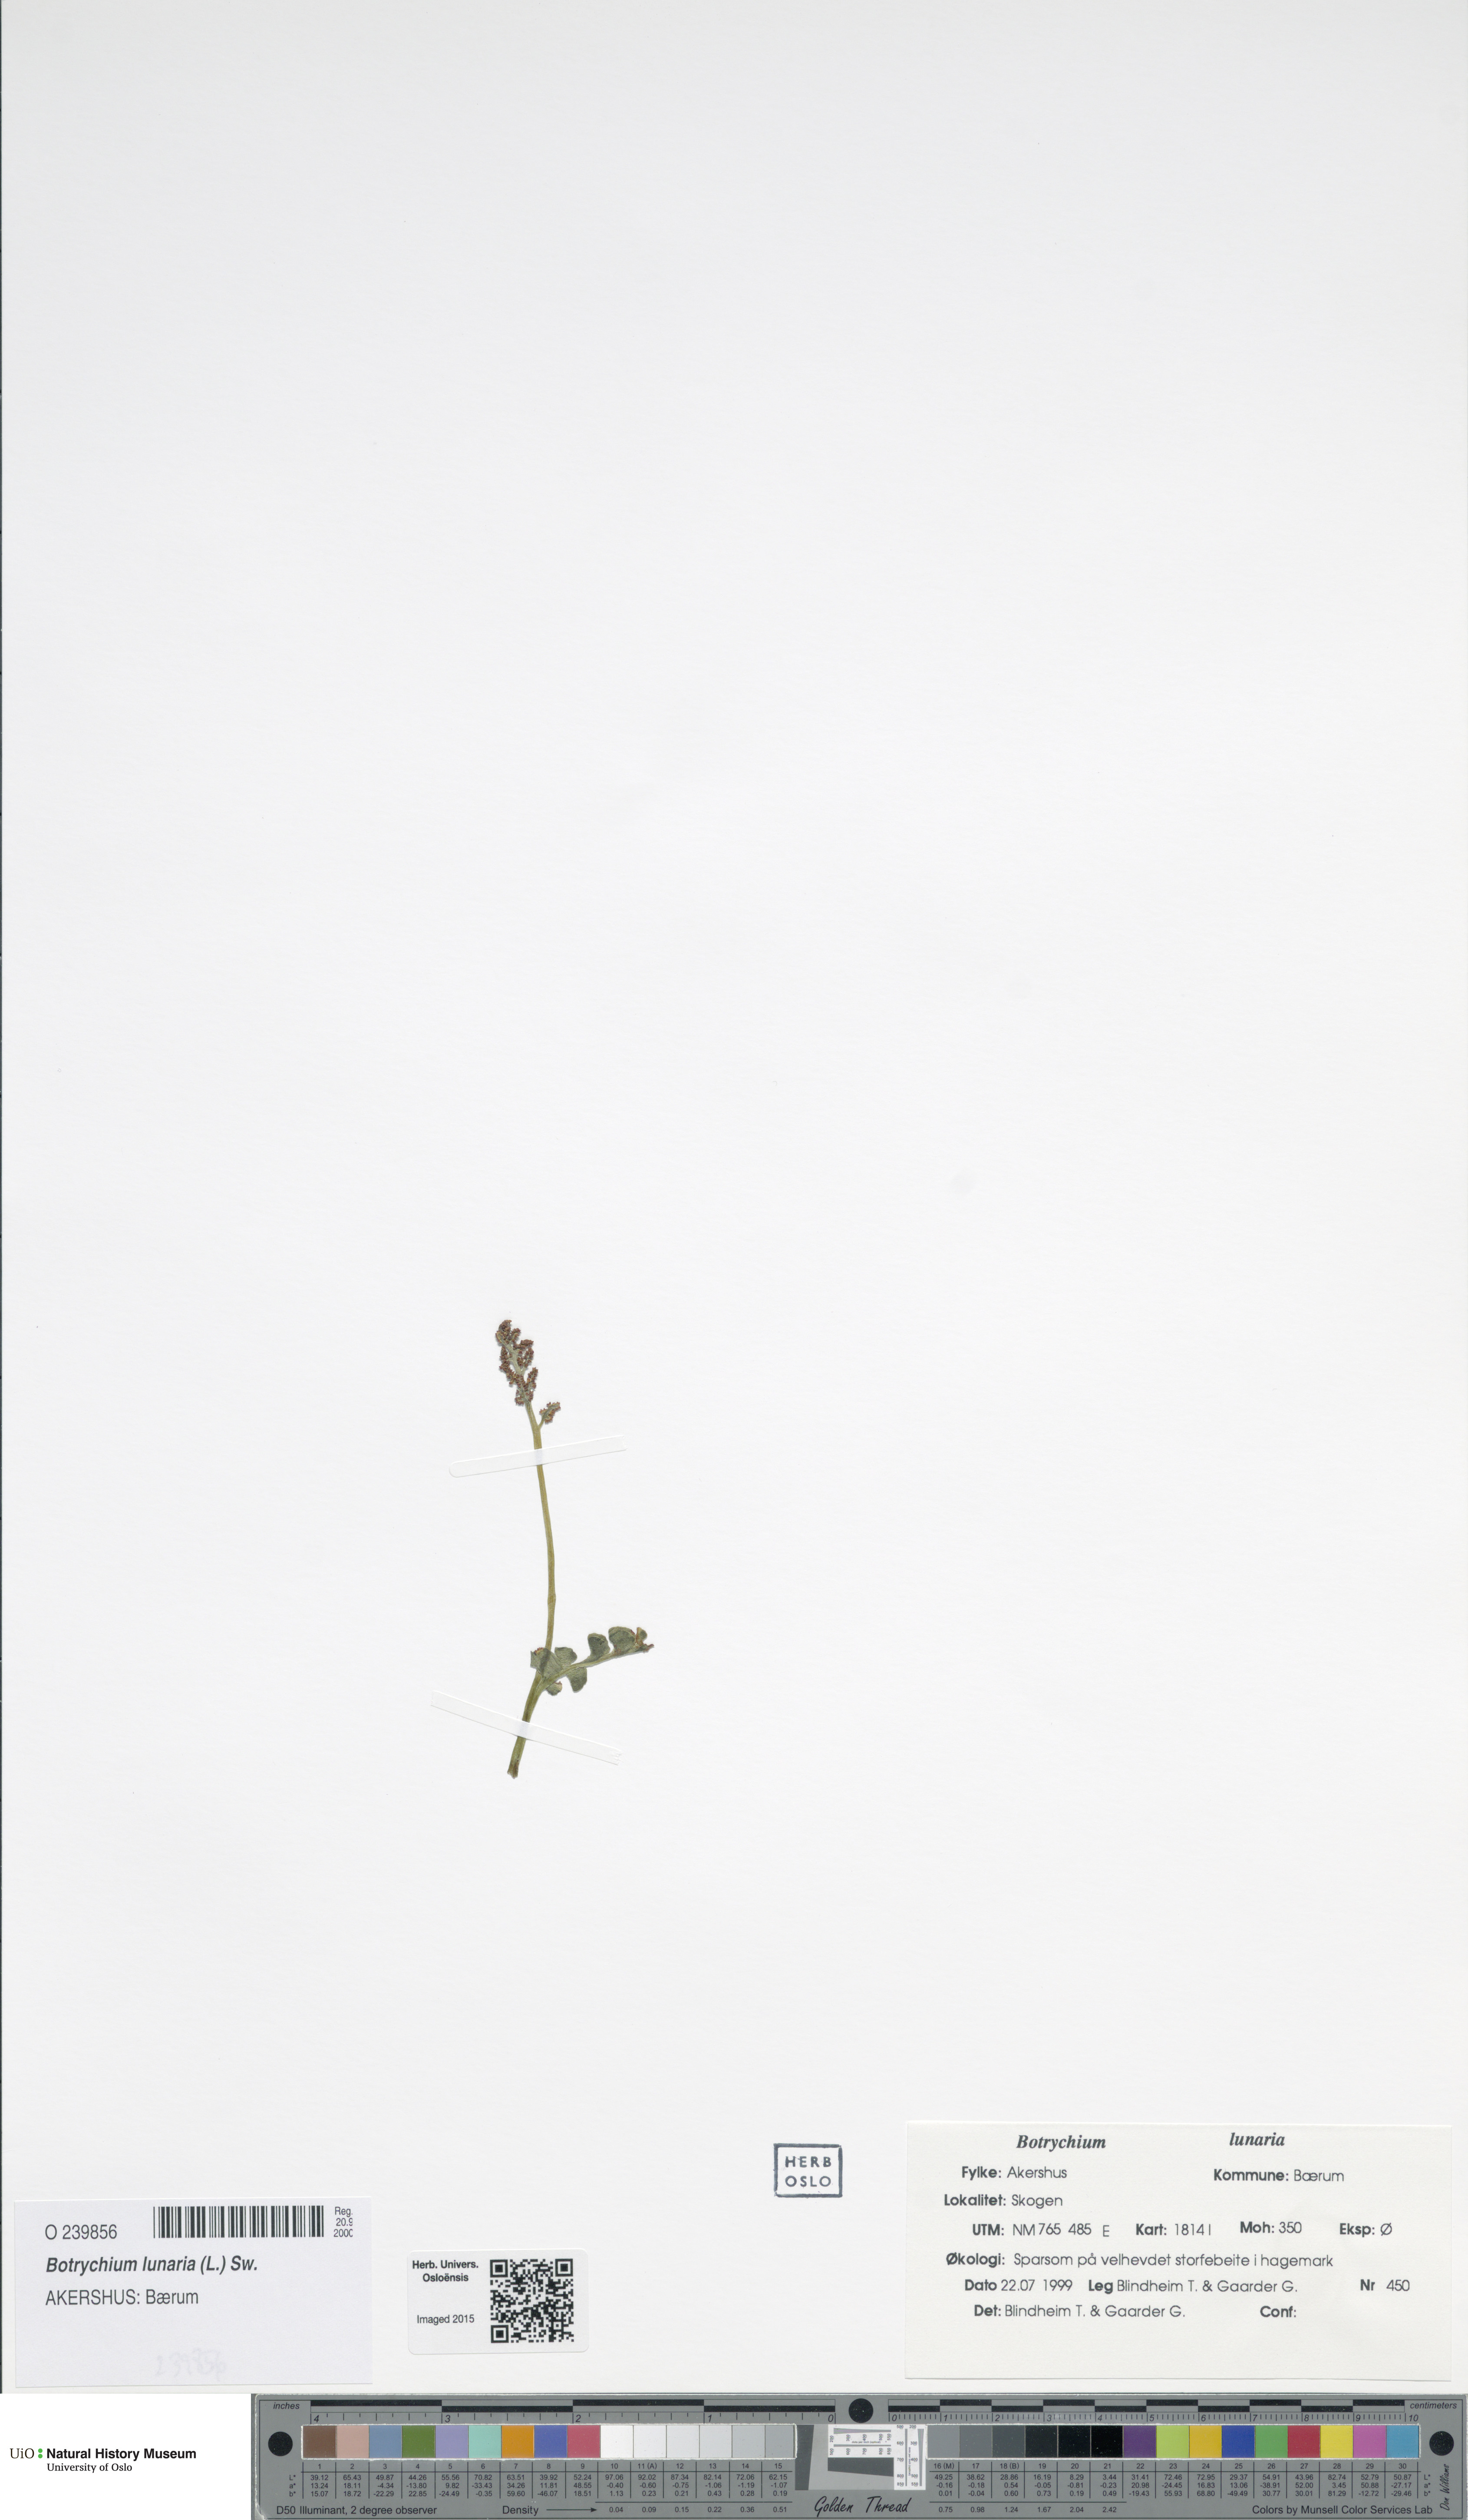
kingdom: Plantae
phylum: Tracheophyta
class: Polypodiopsida
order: Ophioglossales
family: Ophioglossaceae
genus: Botrychium
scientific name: Botrychium lunaria
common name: Moonwort
